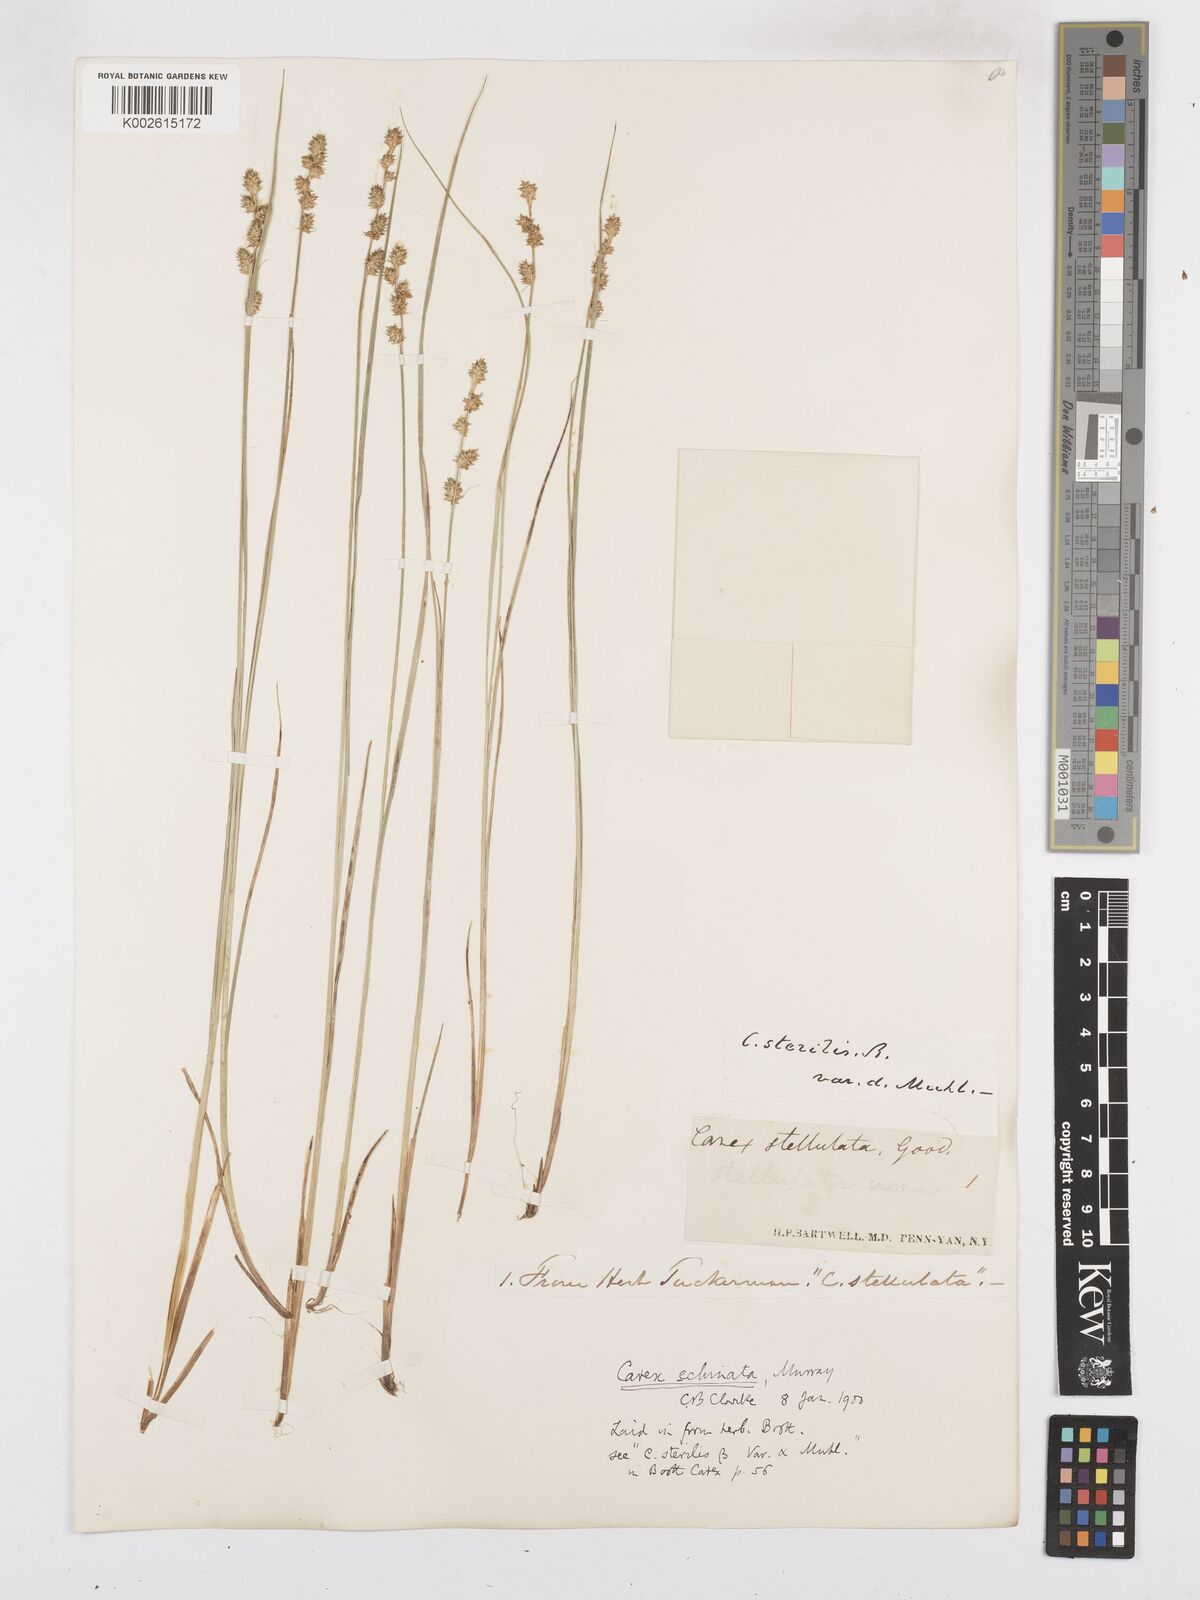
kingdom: Plantae
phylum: Tracheophyta
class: Liliopsida
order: Poales
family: Cyperaceae
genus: Carex
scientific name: Carex echinata
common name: Star sedge
